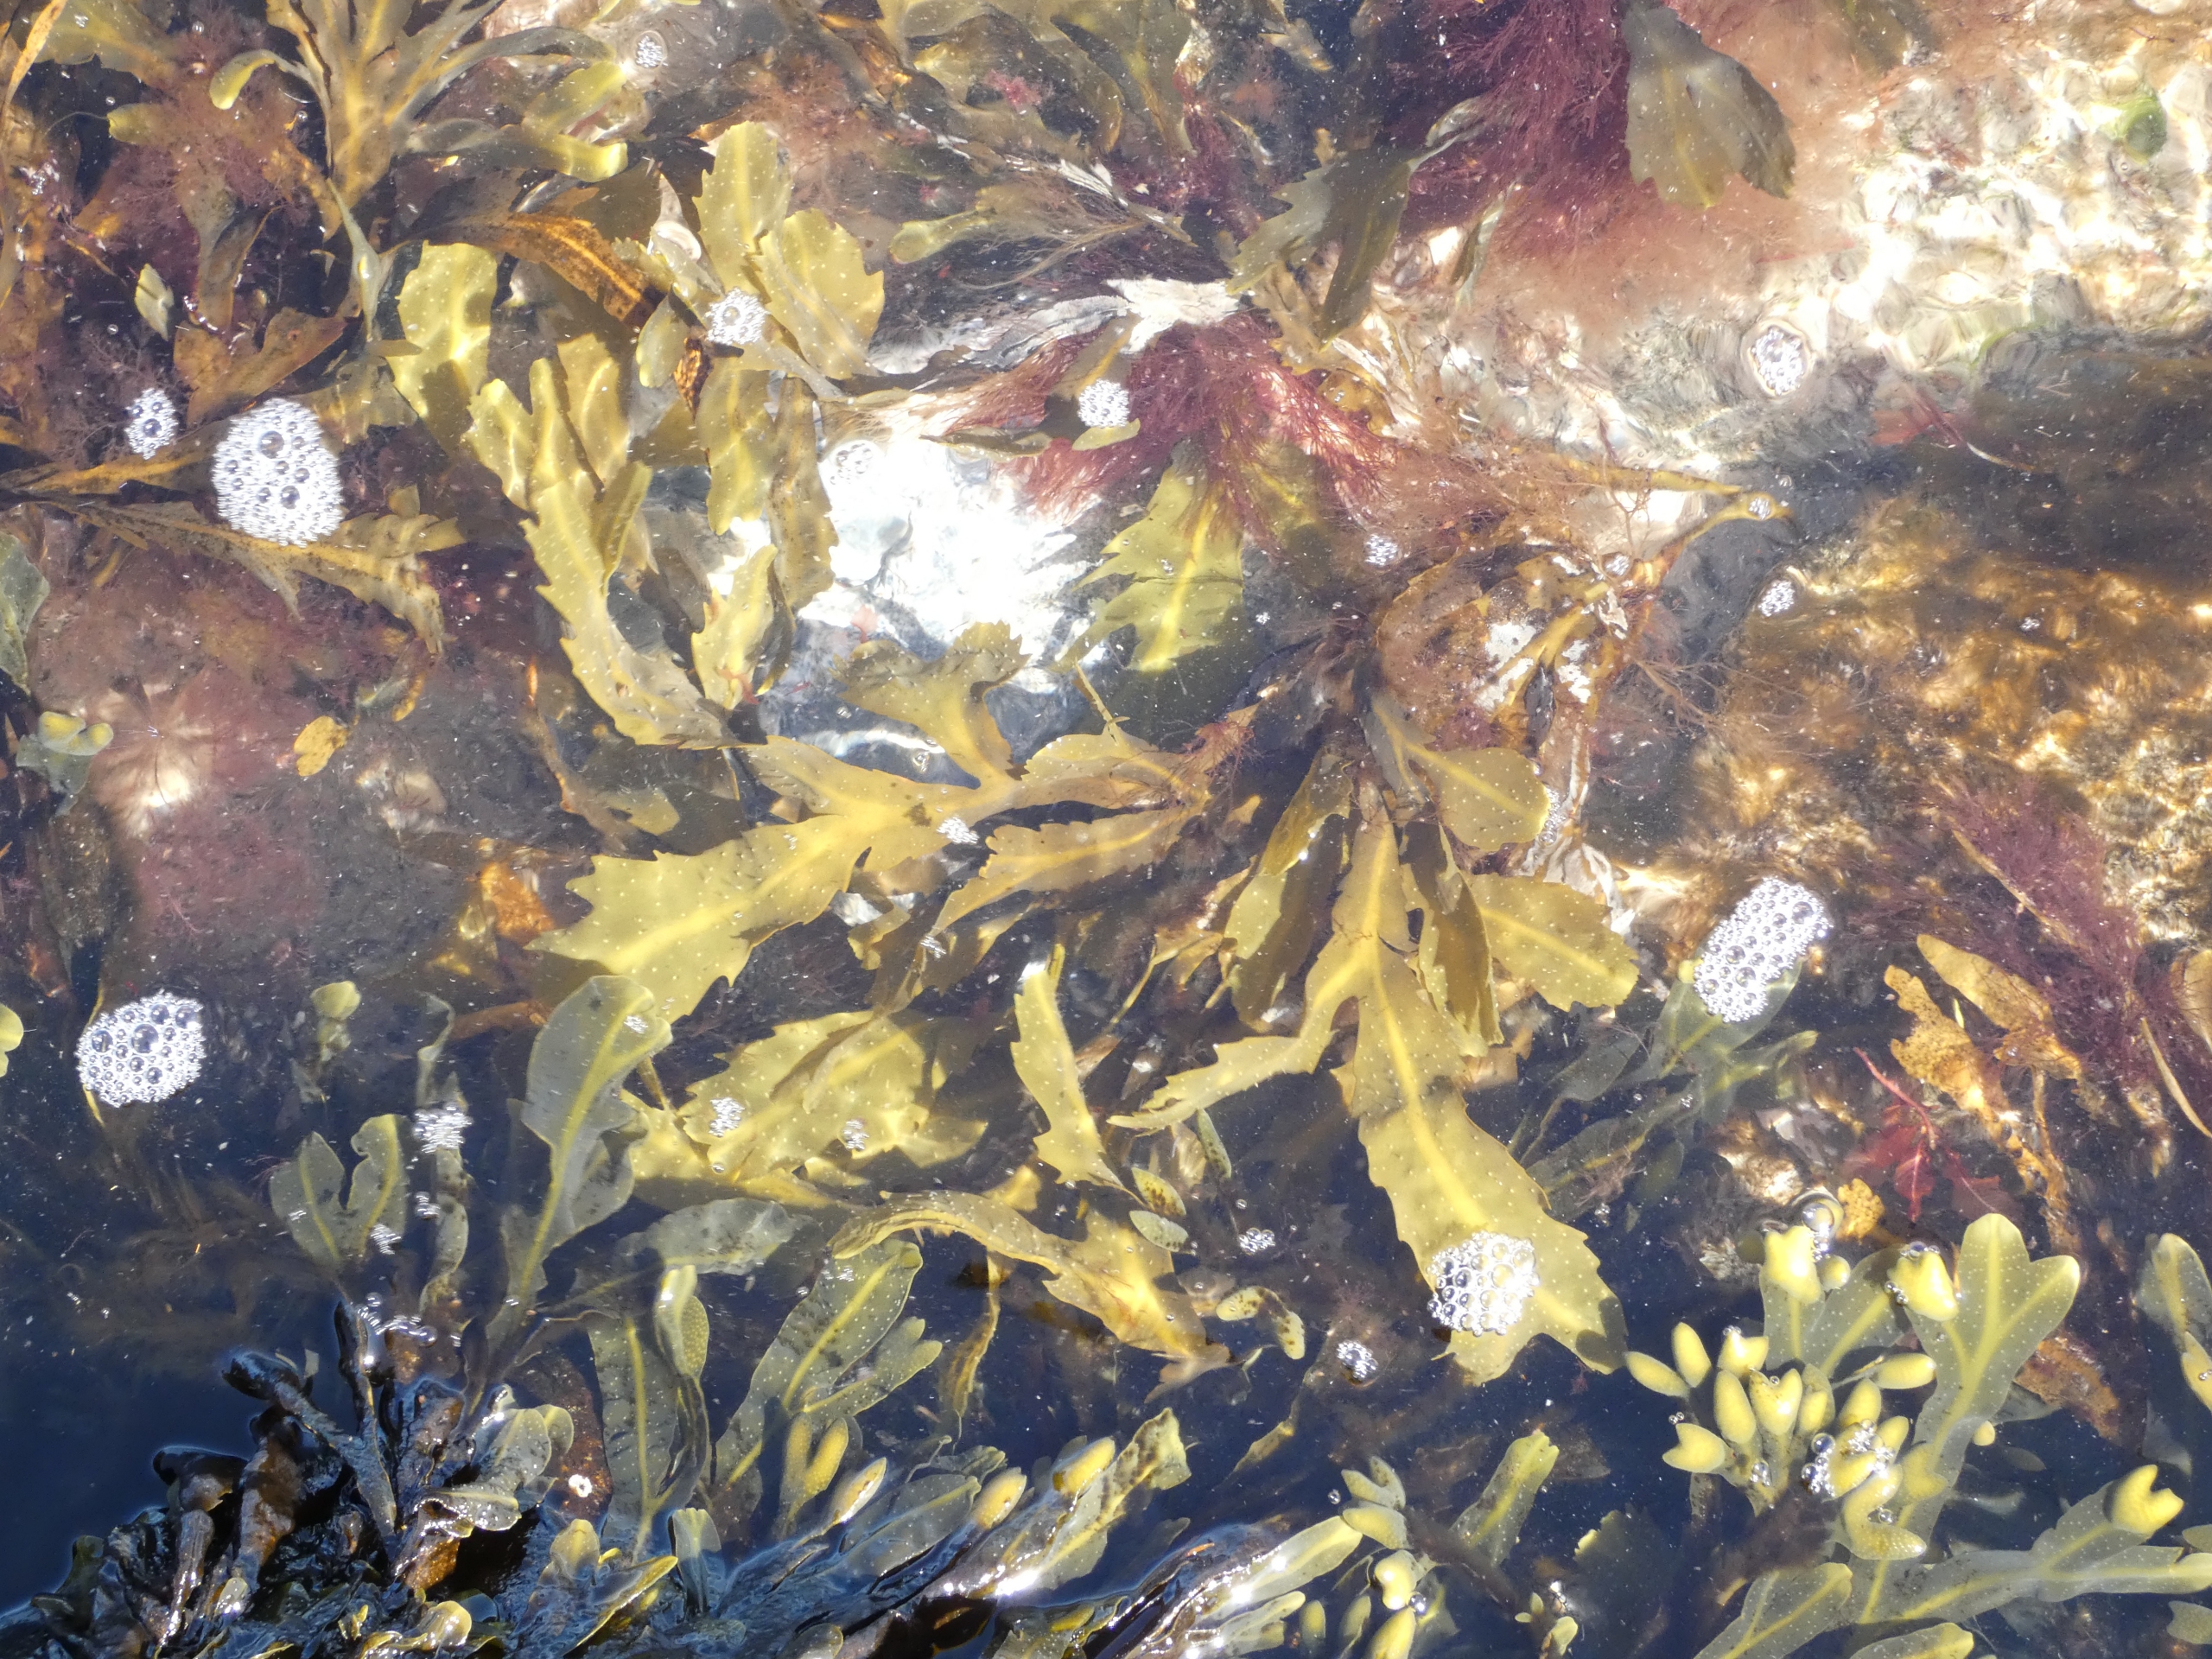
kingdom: Chromista
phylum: Ochrophyta
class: Phaeophyceae
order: Fucales
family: Fucaceae
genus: Fucus
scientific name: Fucus serratus
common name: Savtang
